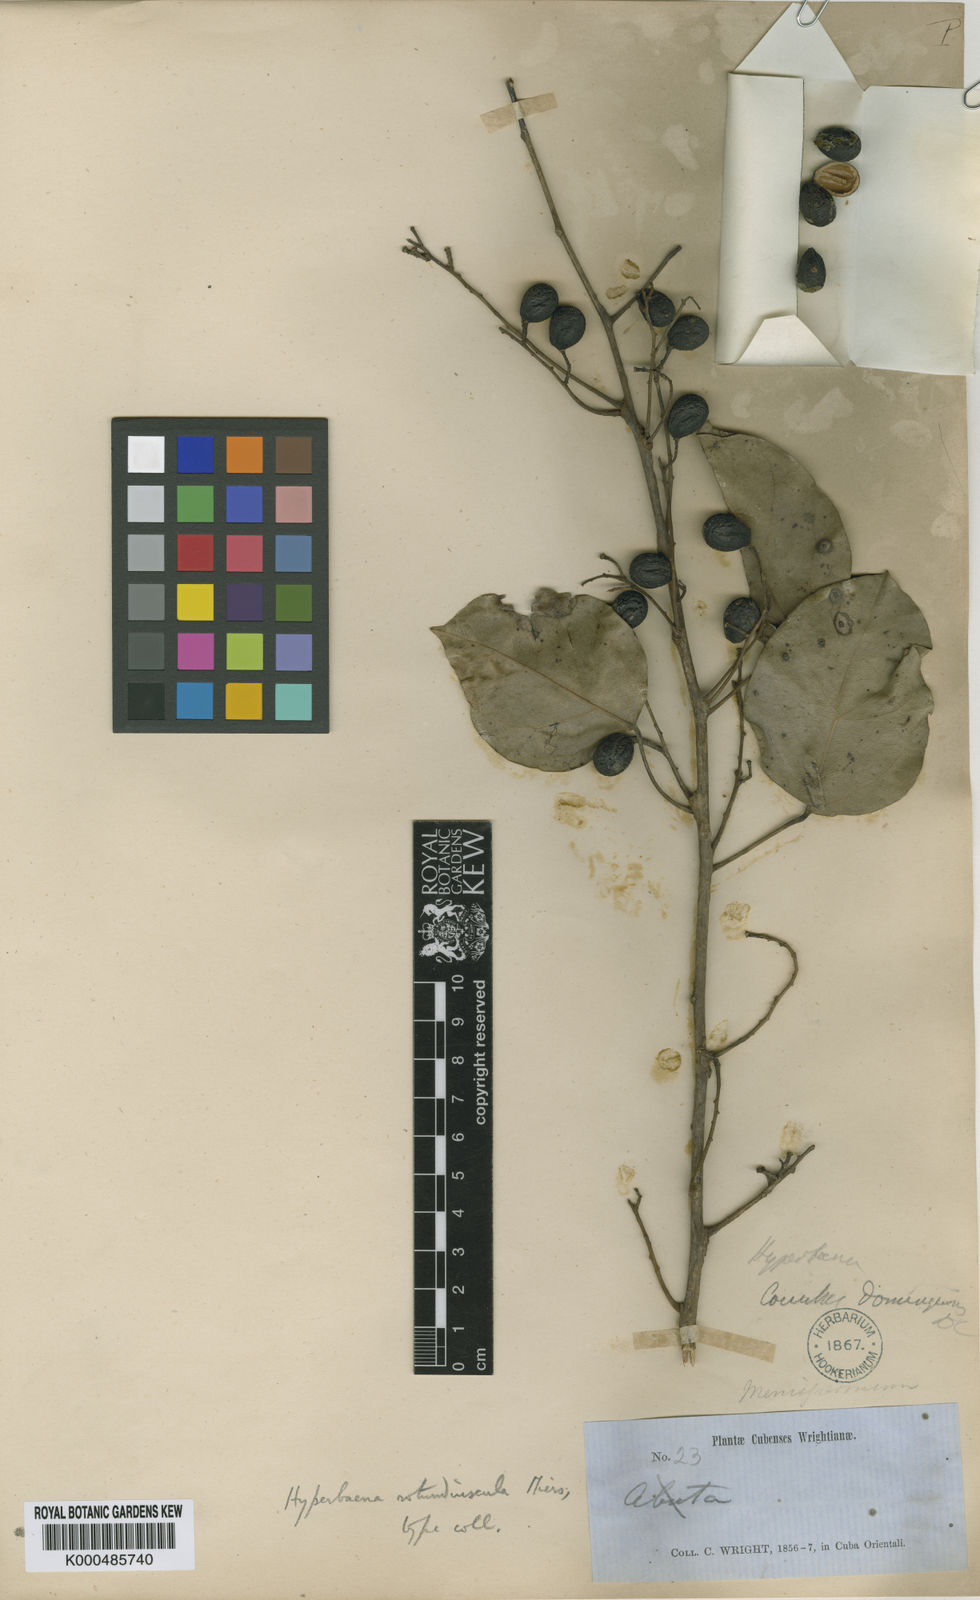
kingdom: Plantae
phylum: Tracheophyta
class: Magnoliopsida
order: Ranunculales
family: Menispermaceae
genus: Hyperbaena
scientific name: Hyperbaena domingensis
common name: Forest snakevine
